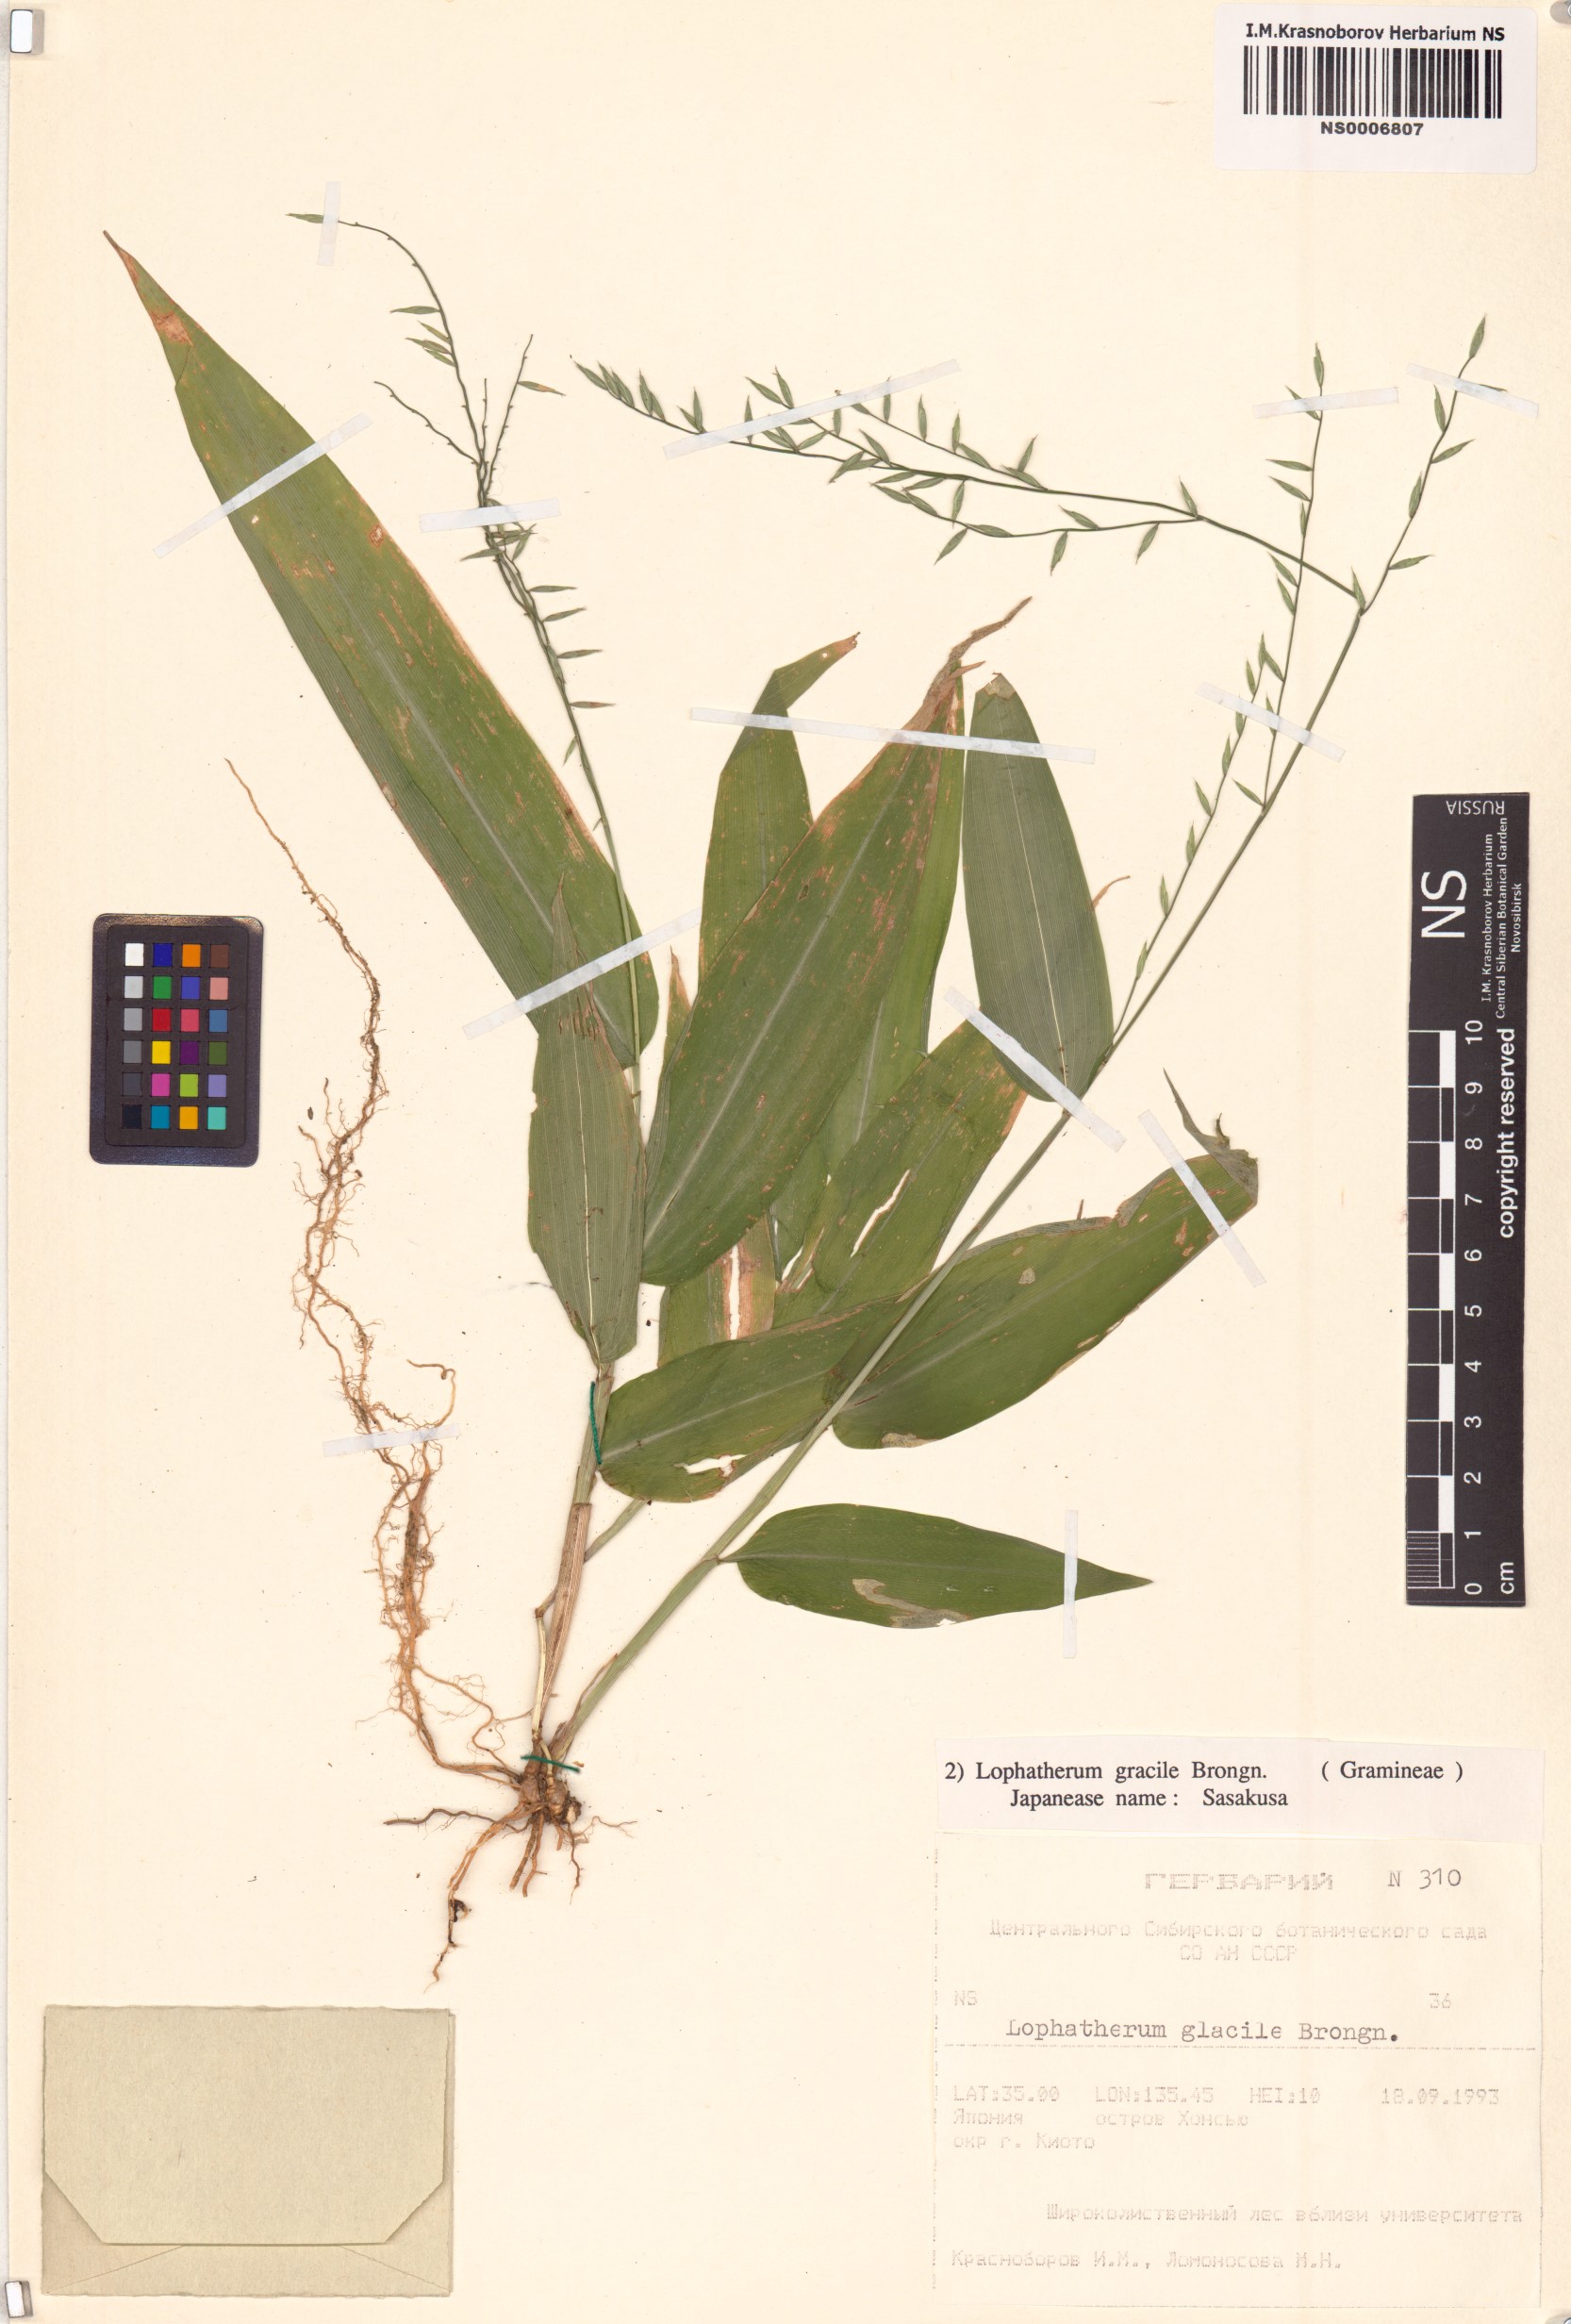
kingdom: Plantae
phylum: Tracheophyta
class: Liliopsida
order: Poales
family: Poaceae
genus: Lophatherum
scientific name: Lophatherum gracile
